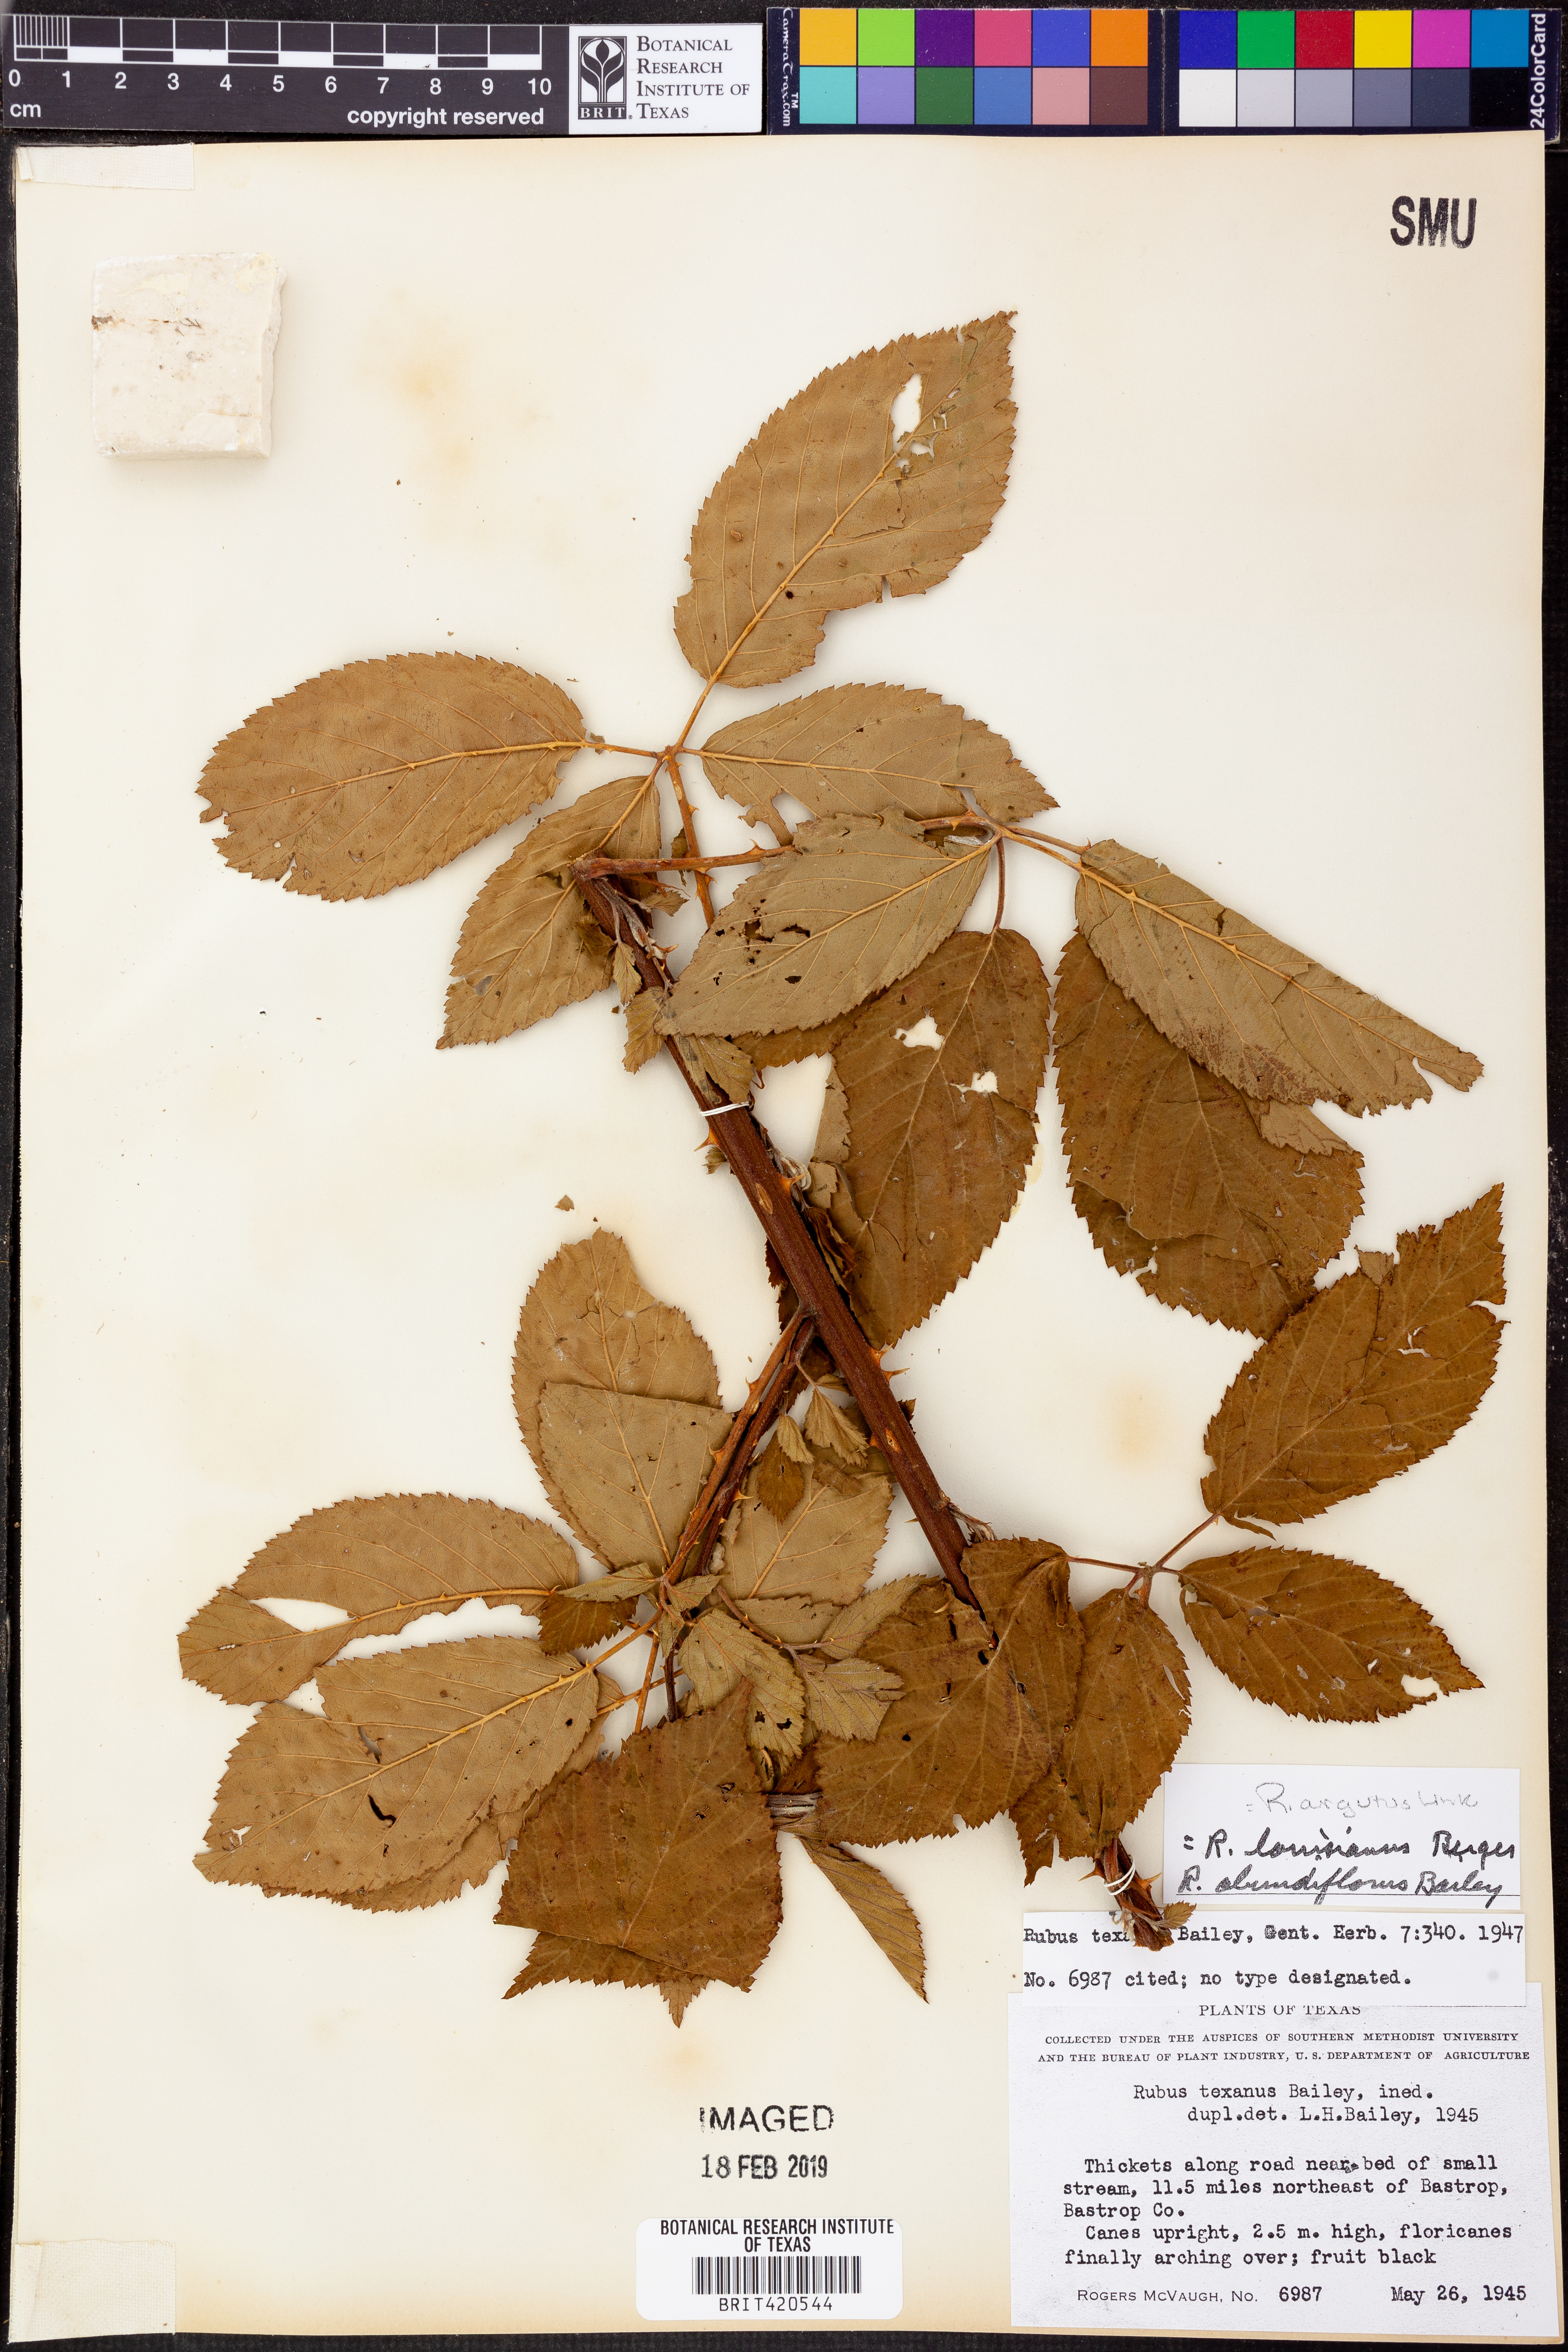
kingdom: Plantae
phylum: Tracheophyta
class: Magnoliopsida
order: Rosales
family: Rosaceae
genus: Rubus
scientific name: Rubus argutus
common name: Sawtooth blackberry
